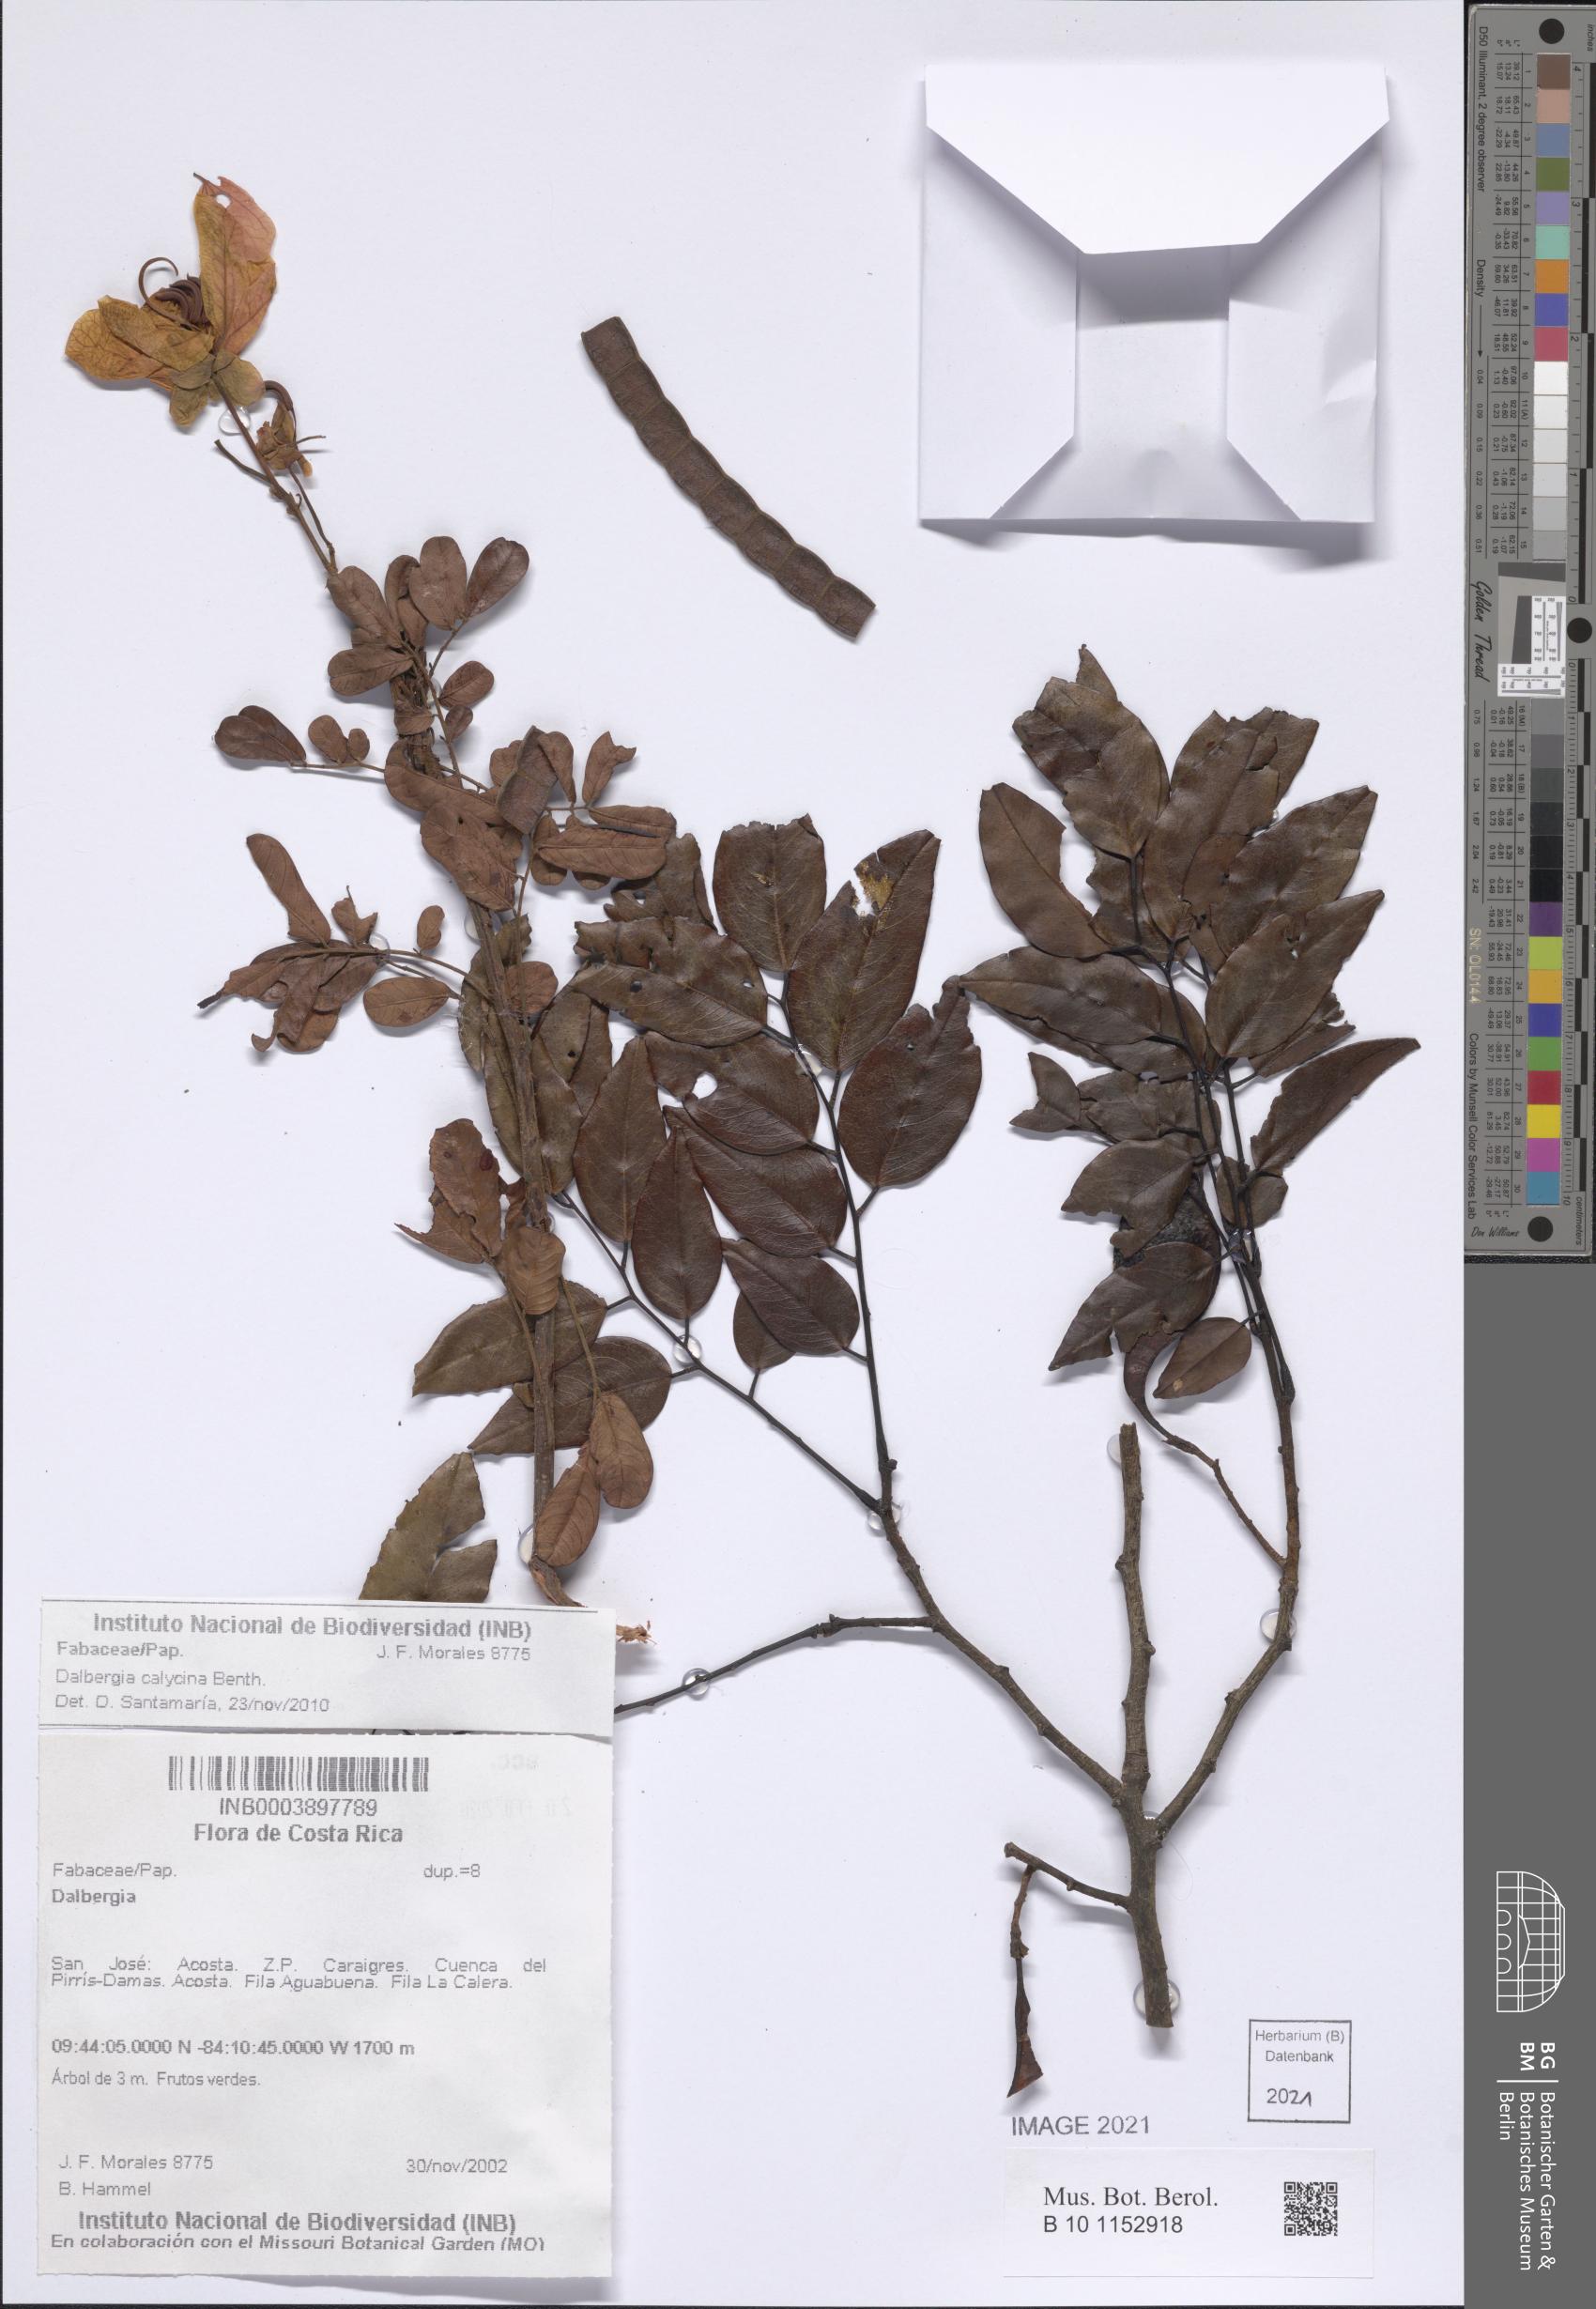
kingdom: Plantae
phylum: Tracheophyta
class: Magnoliopsida
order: Fabales
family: Fabaceae
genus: Dalbergia
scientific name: Dalbergia
